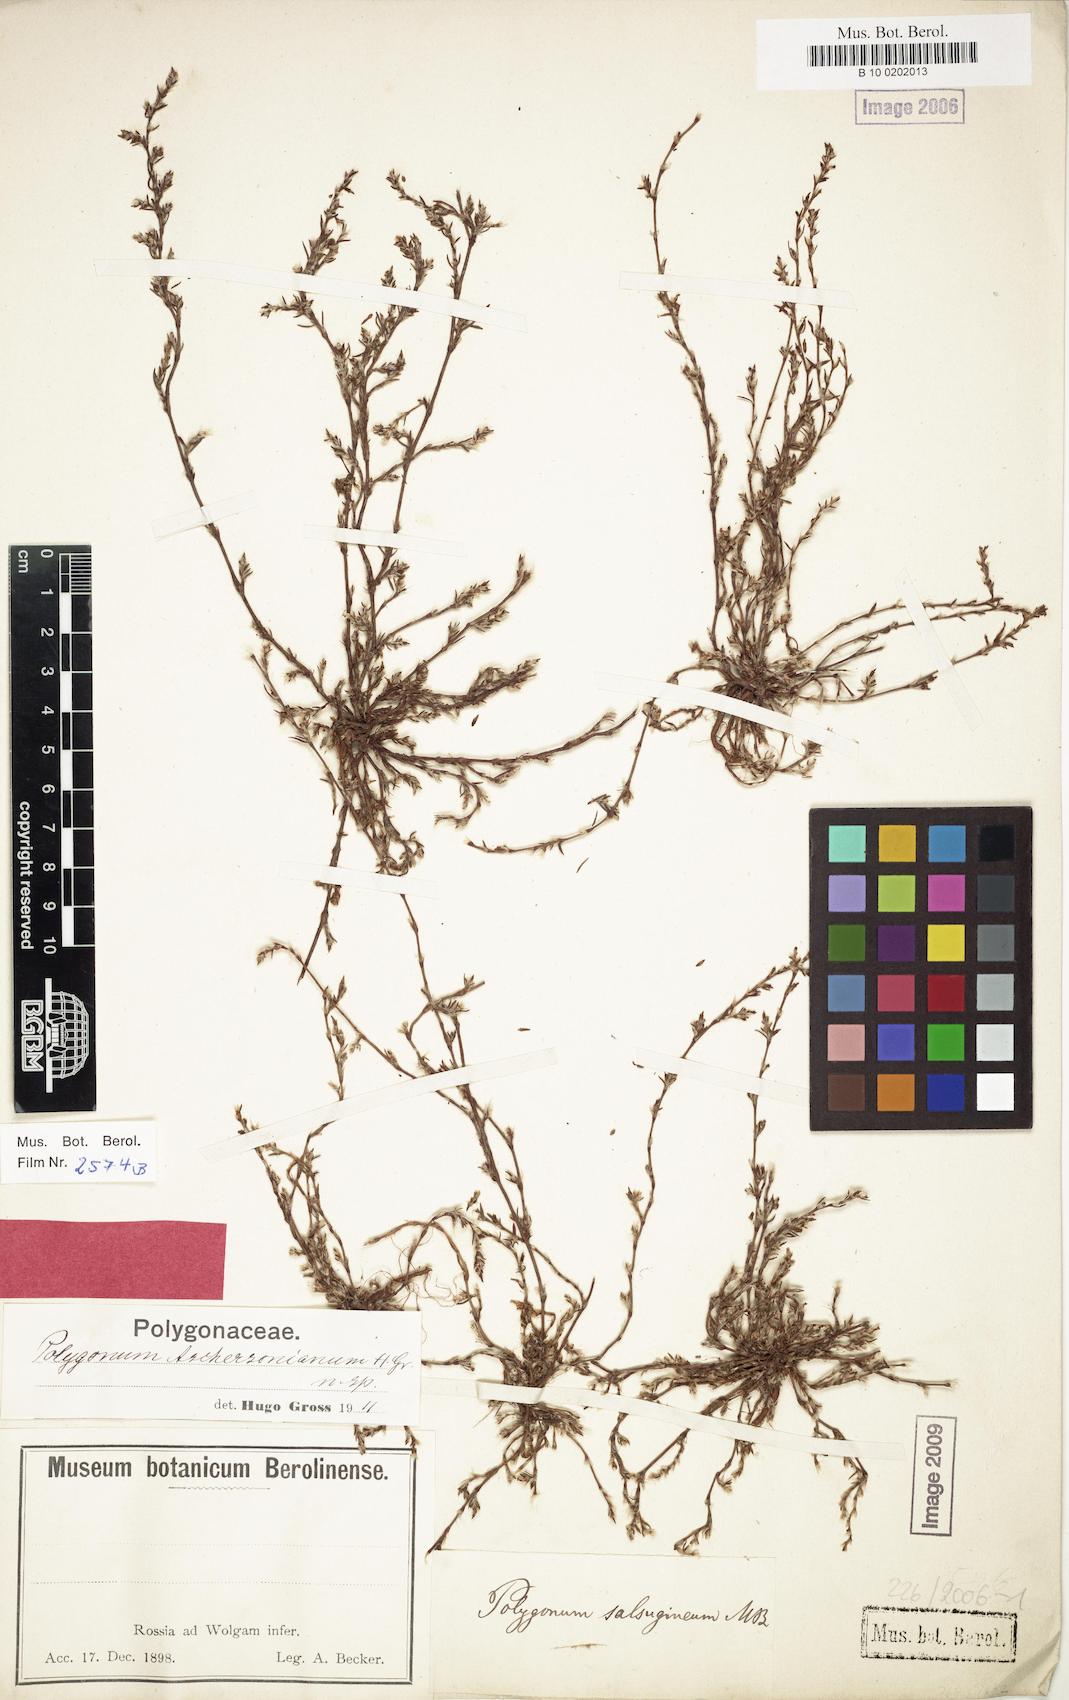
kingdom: Plantae
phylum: Tracheophyta
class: Magnoliopsida
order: Caryophyllales
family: Polygonaceae
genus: Polygonum
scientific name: Polygonum aschersonianum
